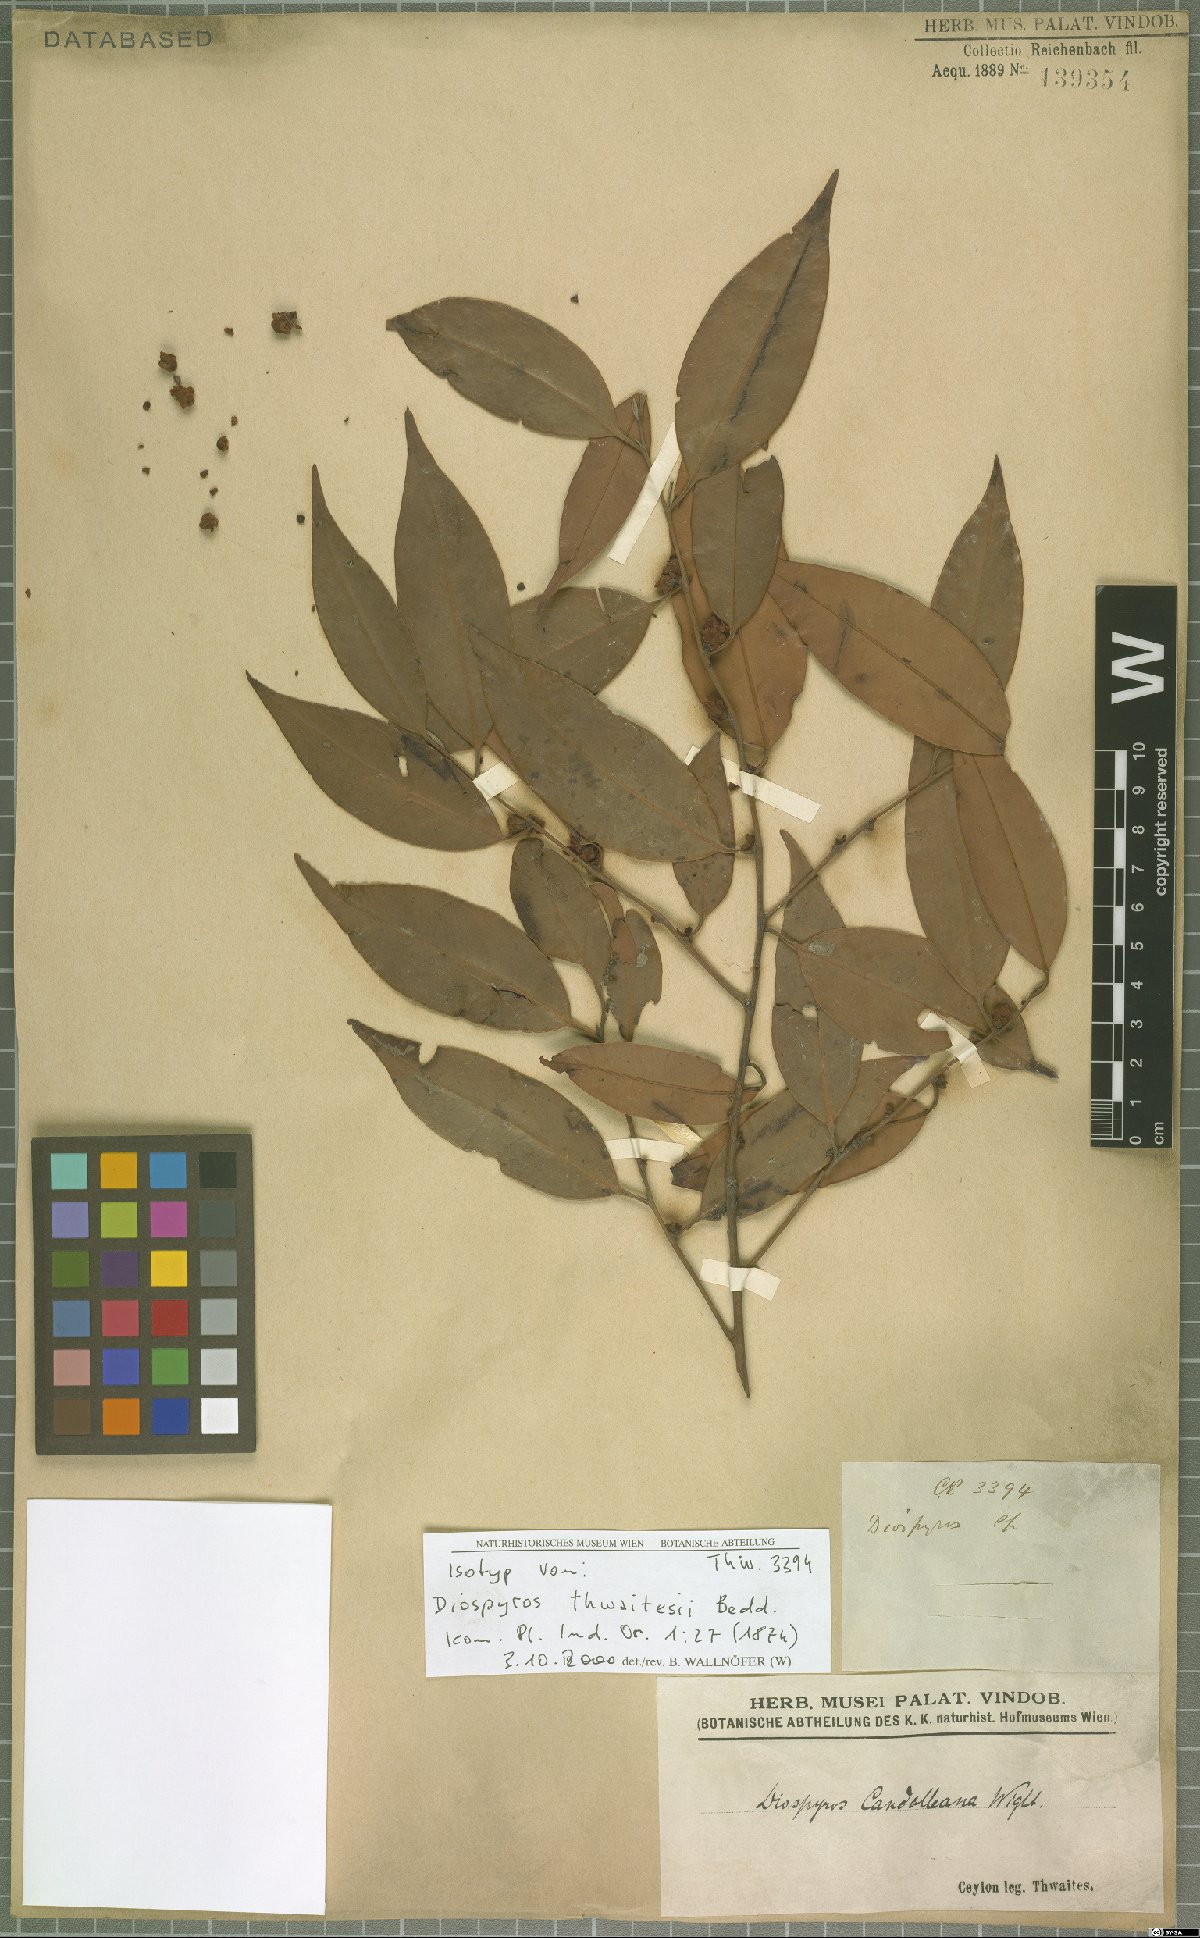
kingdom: Plantae
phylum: Tracheophyta
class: Magnoliopsida
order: Ericales
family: Ebenaceae
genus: Diospyros
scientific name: Diospyros thwaitesii
